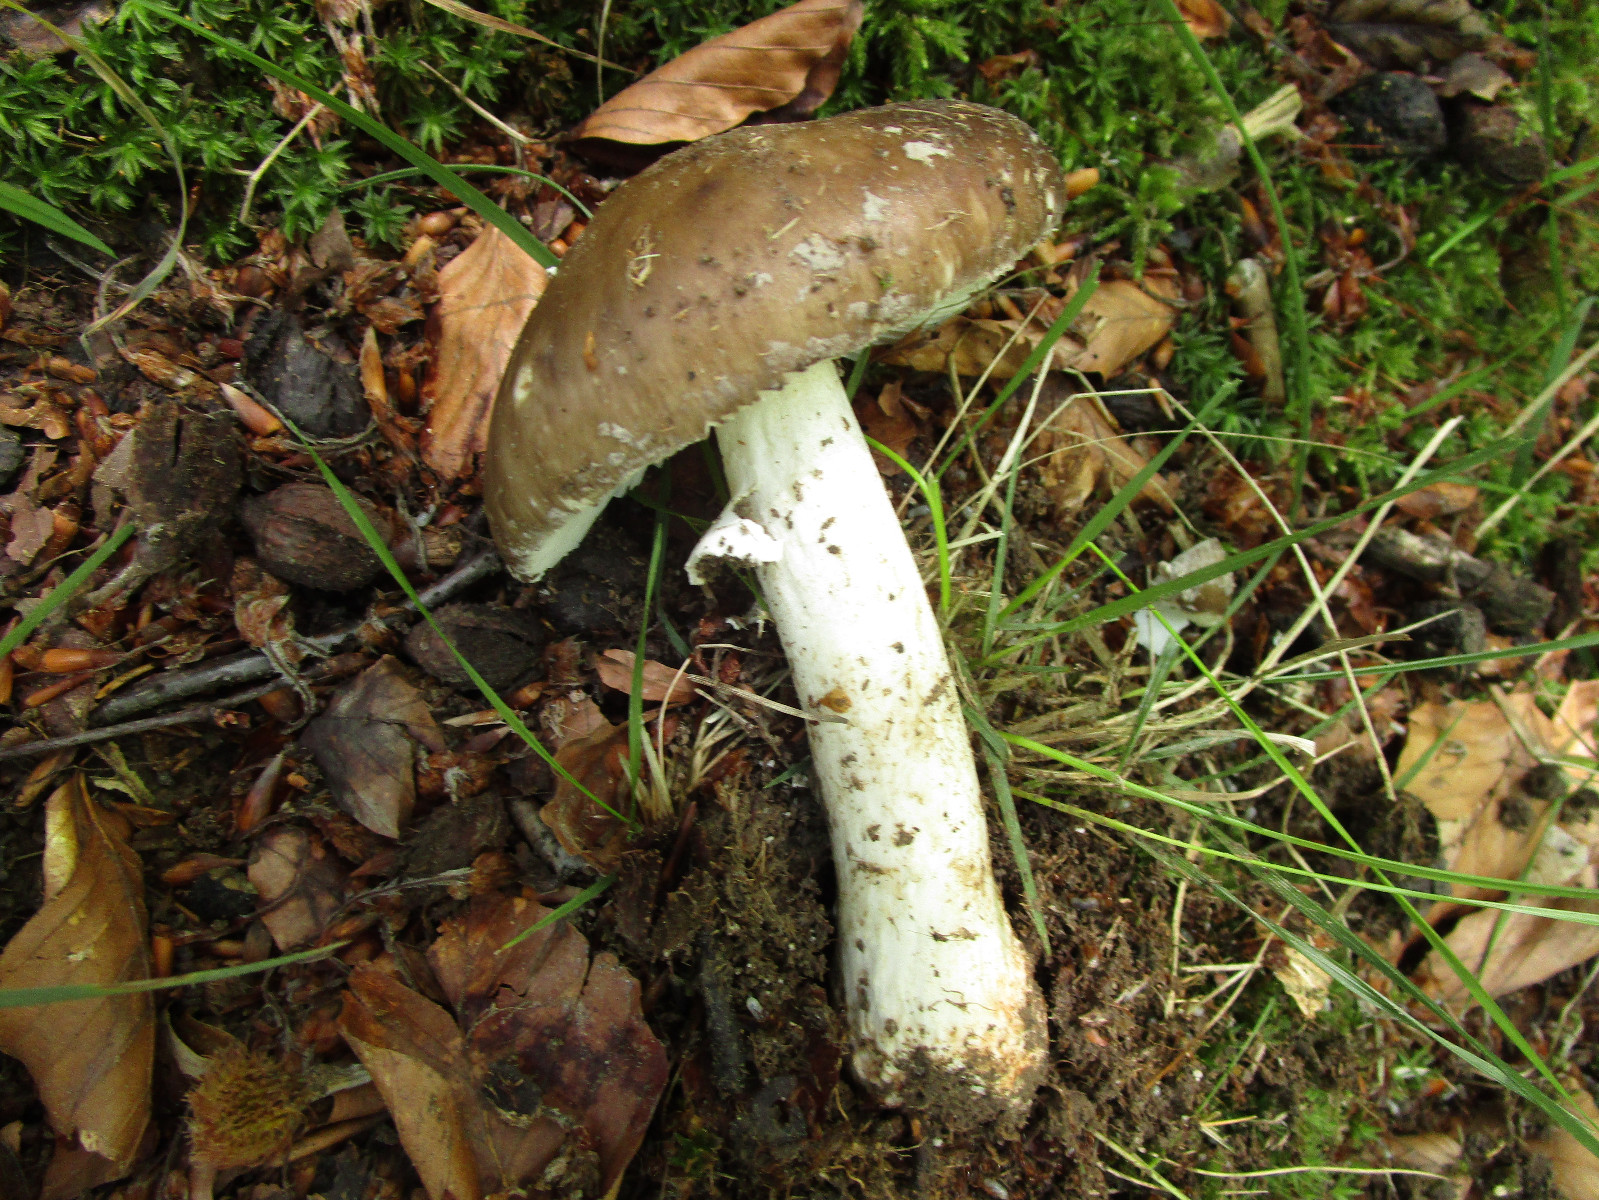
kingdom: Fungi
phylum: Basidiomycota
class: Agaricomycetes
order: Agaricales
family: Amanitaceae
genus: Amanita
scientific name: Amanita
